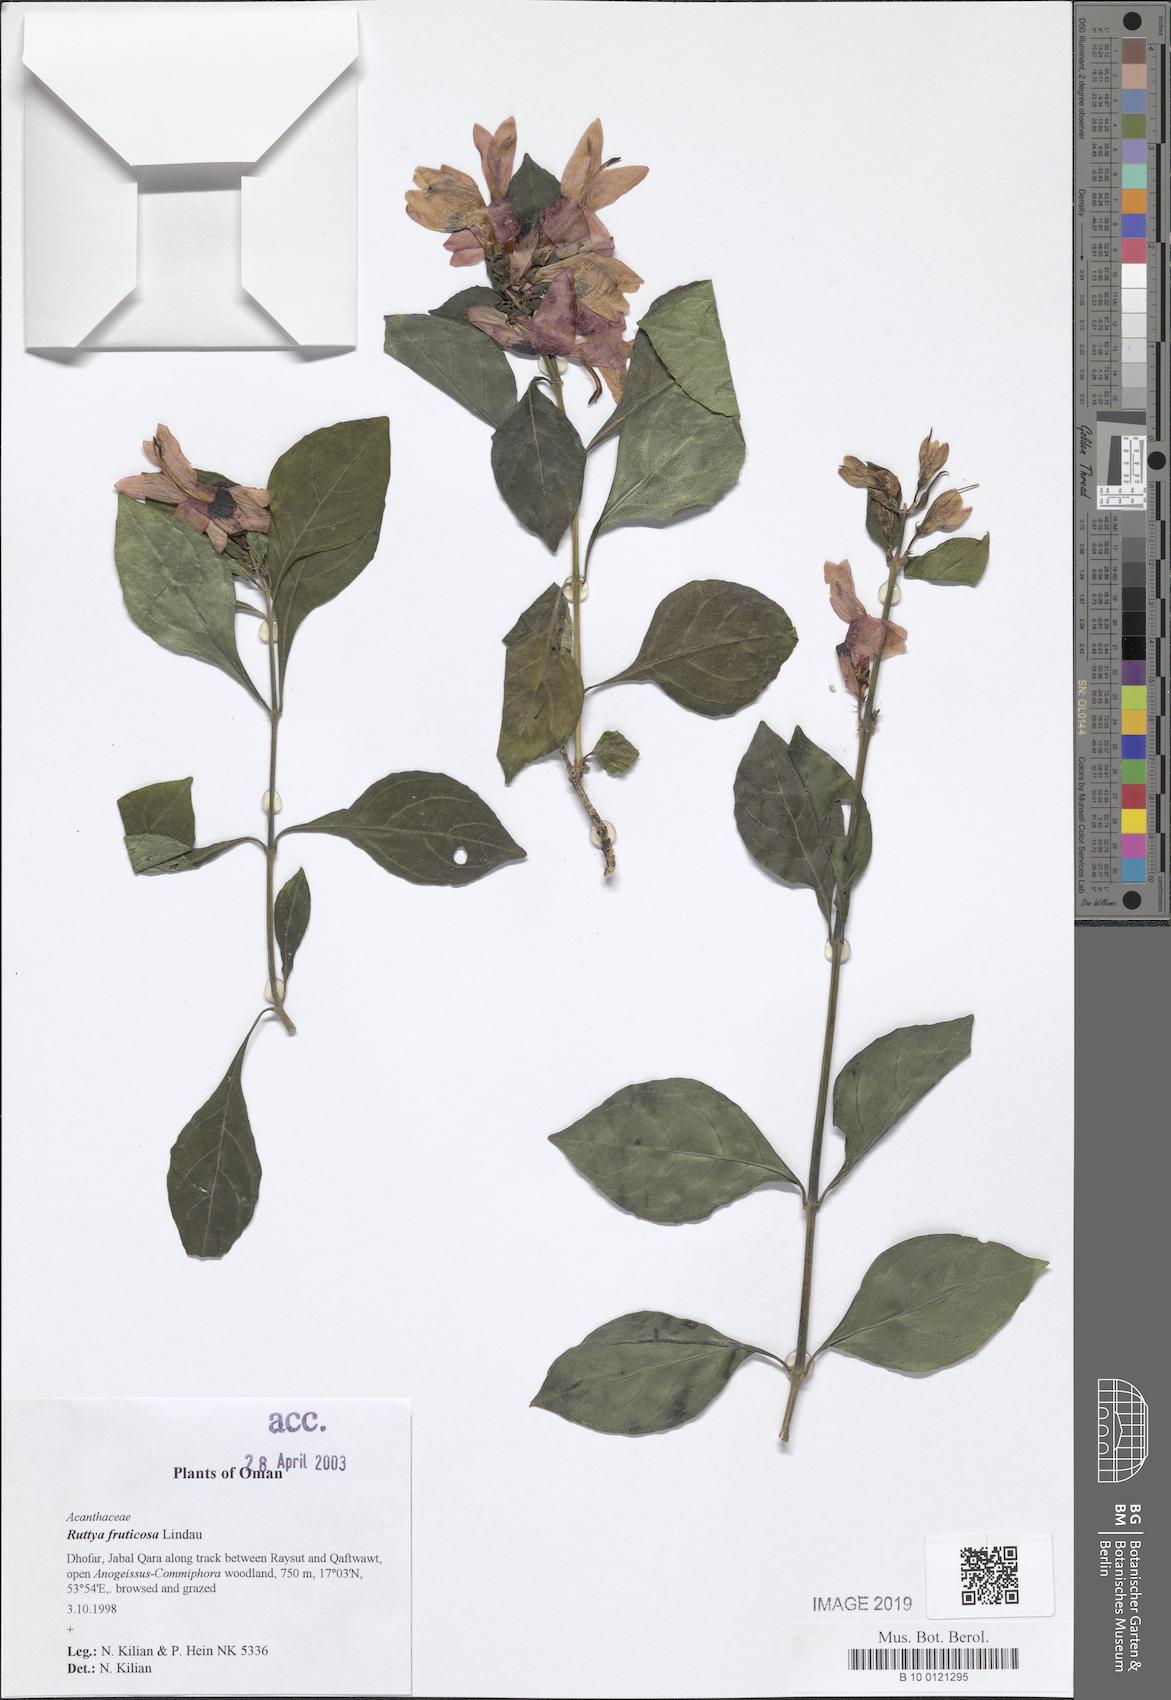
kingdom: Plantae
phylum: Tracheophyta
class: Magnoliopsida
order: Lamiales
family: Acanthaceae
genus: Ruttya
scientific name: Ruttya fruticosa
